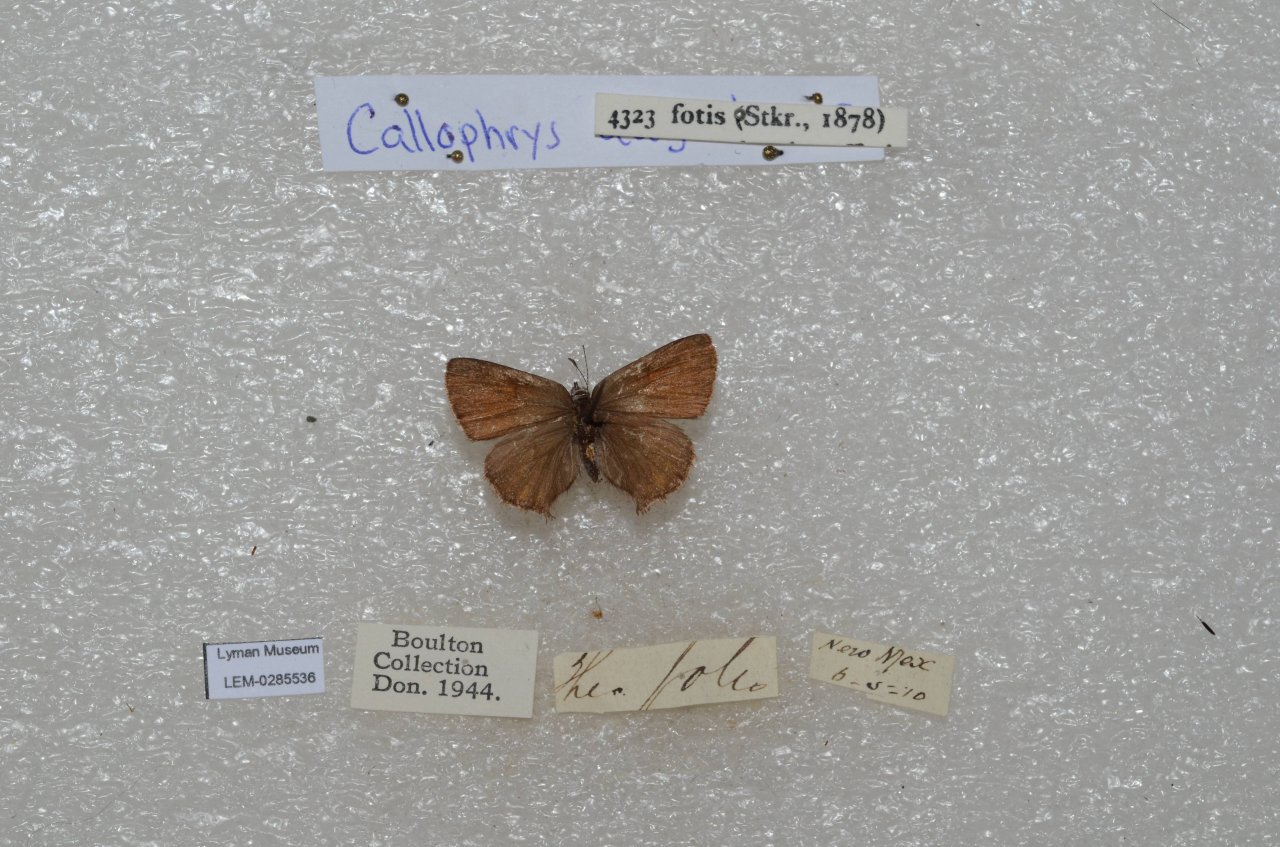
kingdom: Animalia
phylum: Arthropoda
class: Insecta
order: Lepidoptera
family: Lycaenidae
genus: Callophrys
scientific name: Callophrys fotis
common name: Desert Elfin
